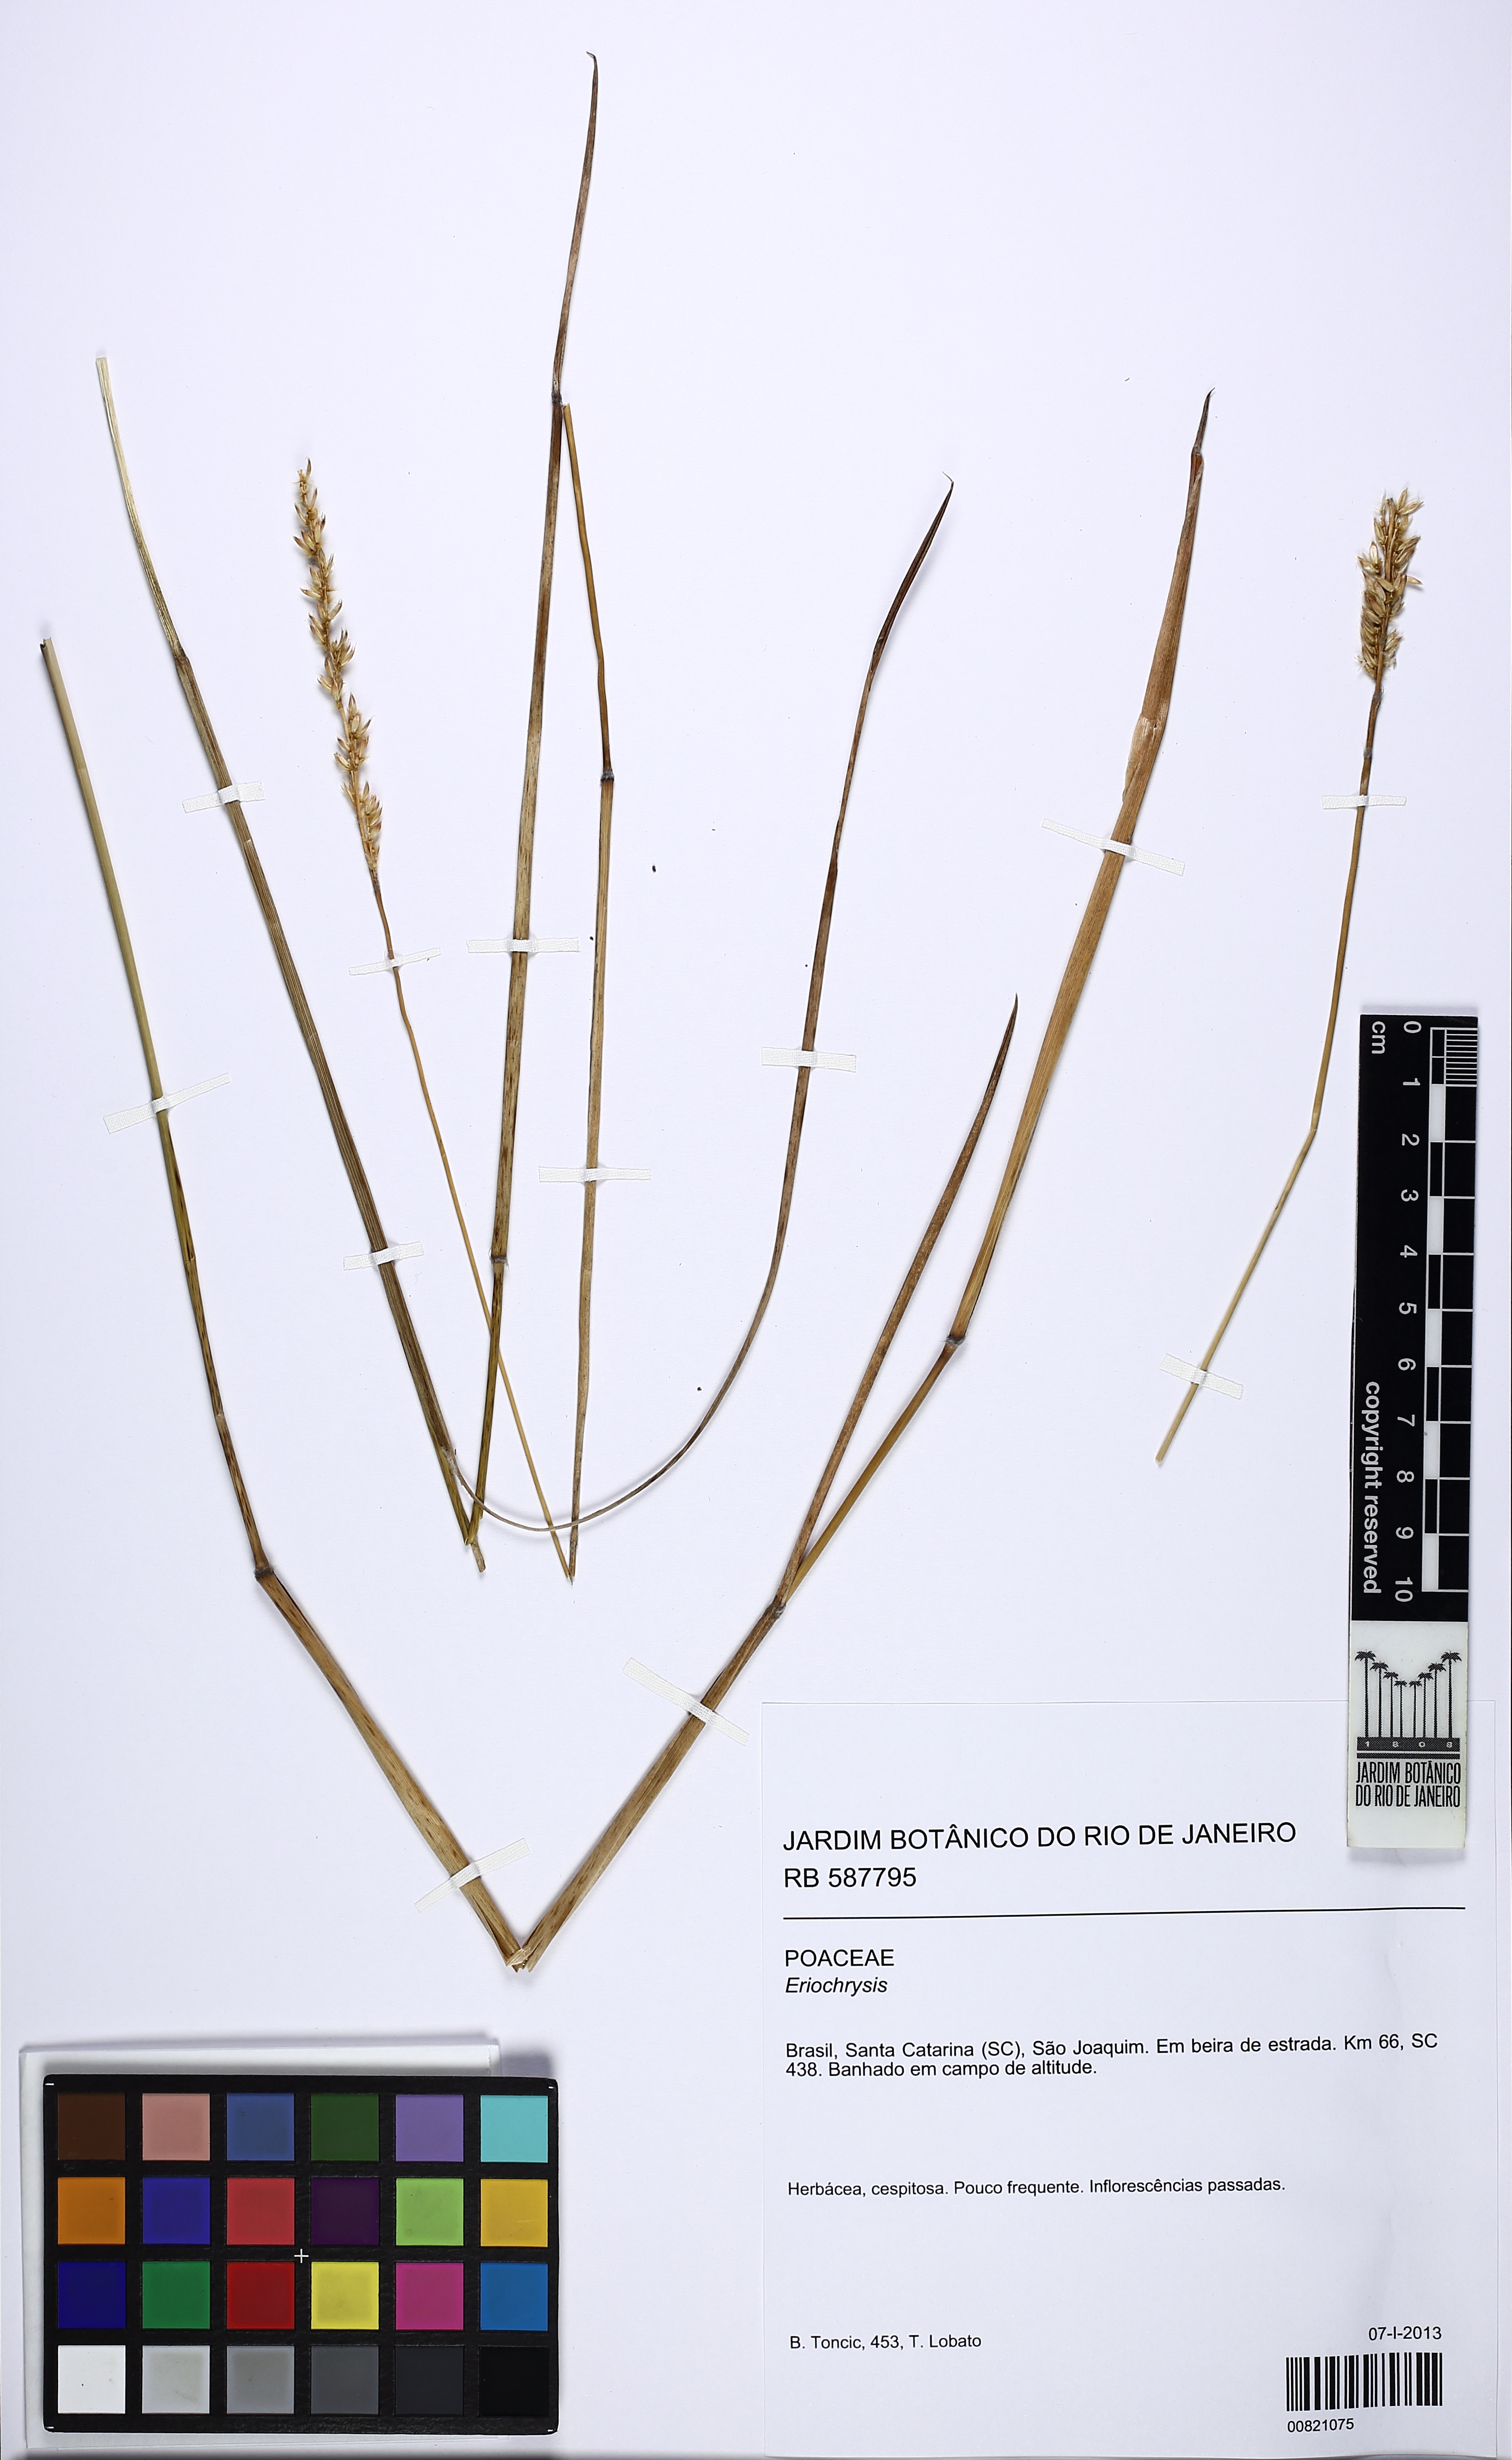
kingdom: Plantae
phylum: Tracheophyta
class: Liliopsida
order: Poales
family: Poaceae
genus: Eriochrysis
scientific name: Eriochrysis
